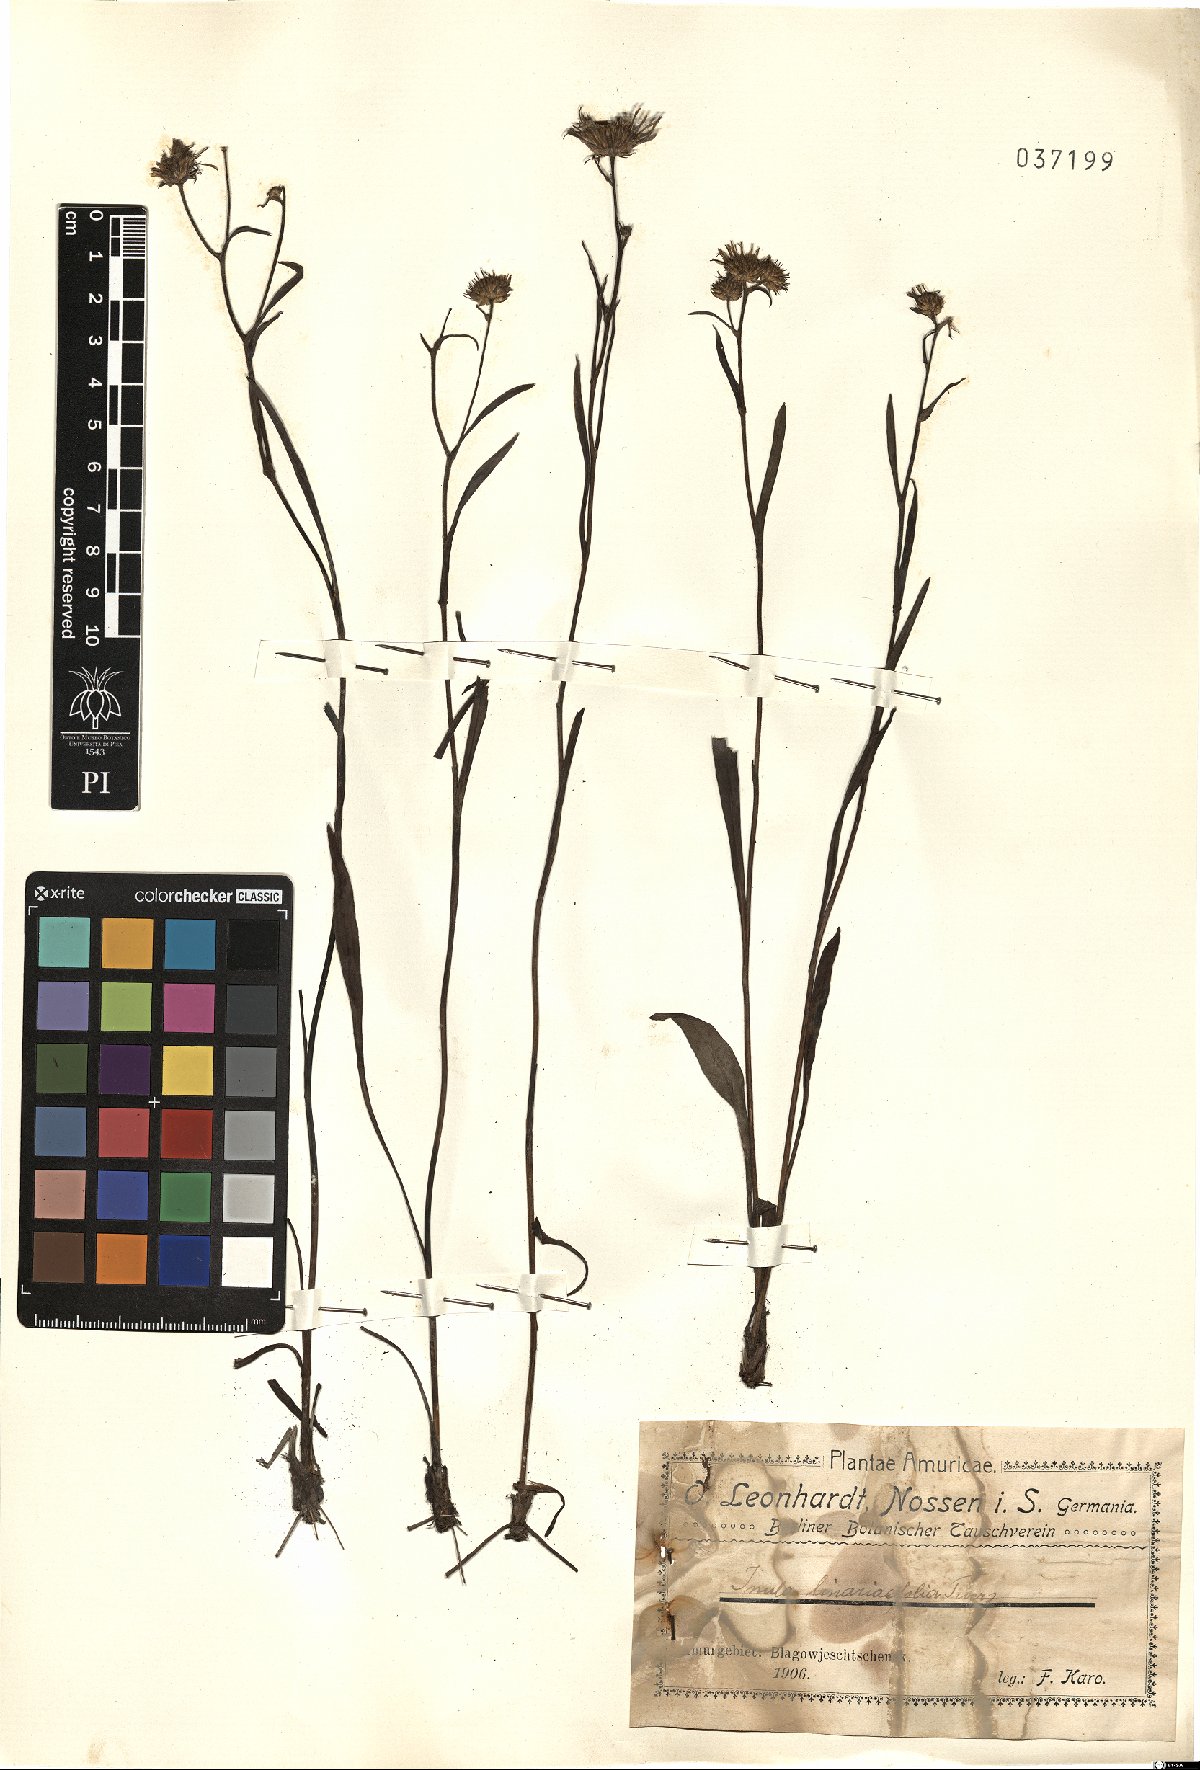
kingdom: Plantae
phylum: Tracheophyta
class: Magnoliopsida
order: Asterales
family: Asteraceae
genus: Inula
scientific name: Inula linariifolia
